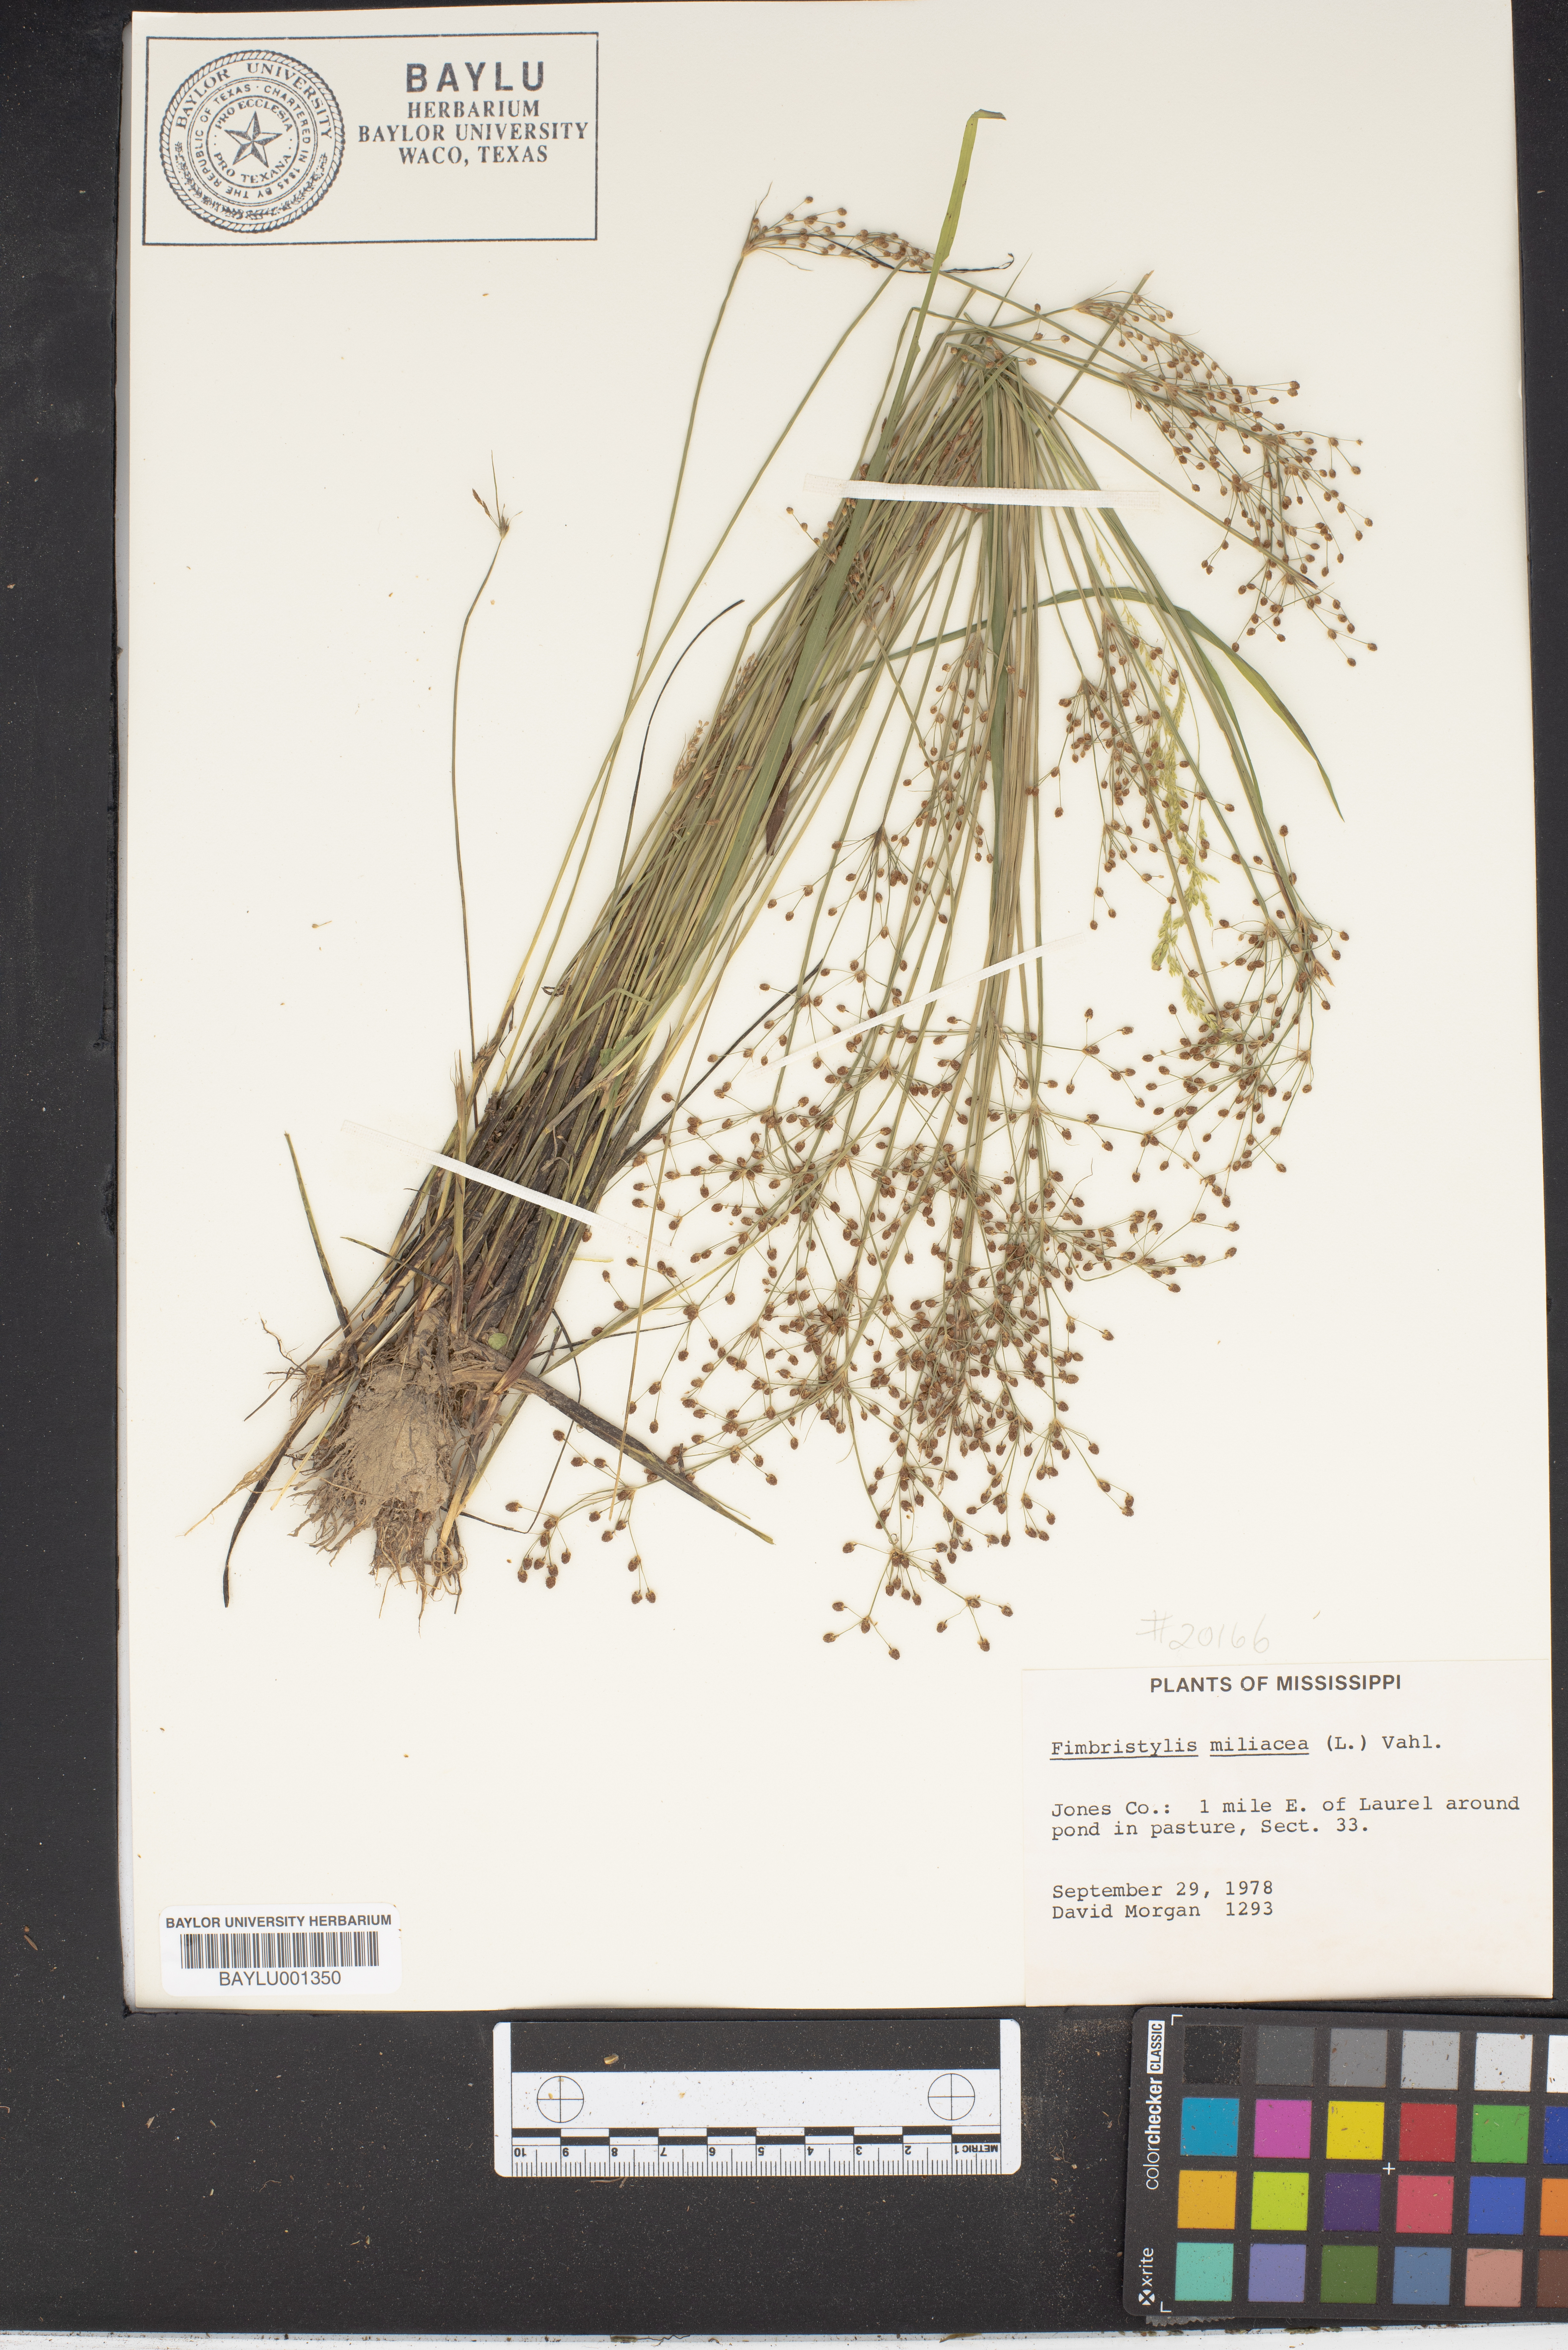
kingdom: Plantae
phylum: Tracheophyta
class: Liliopsida
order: Poales
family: Cyperaceae
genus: Fimbristylis
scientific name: Fimbristylis quinquangularis
